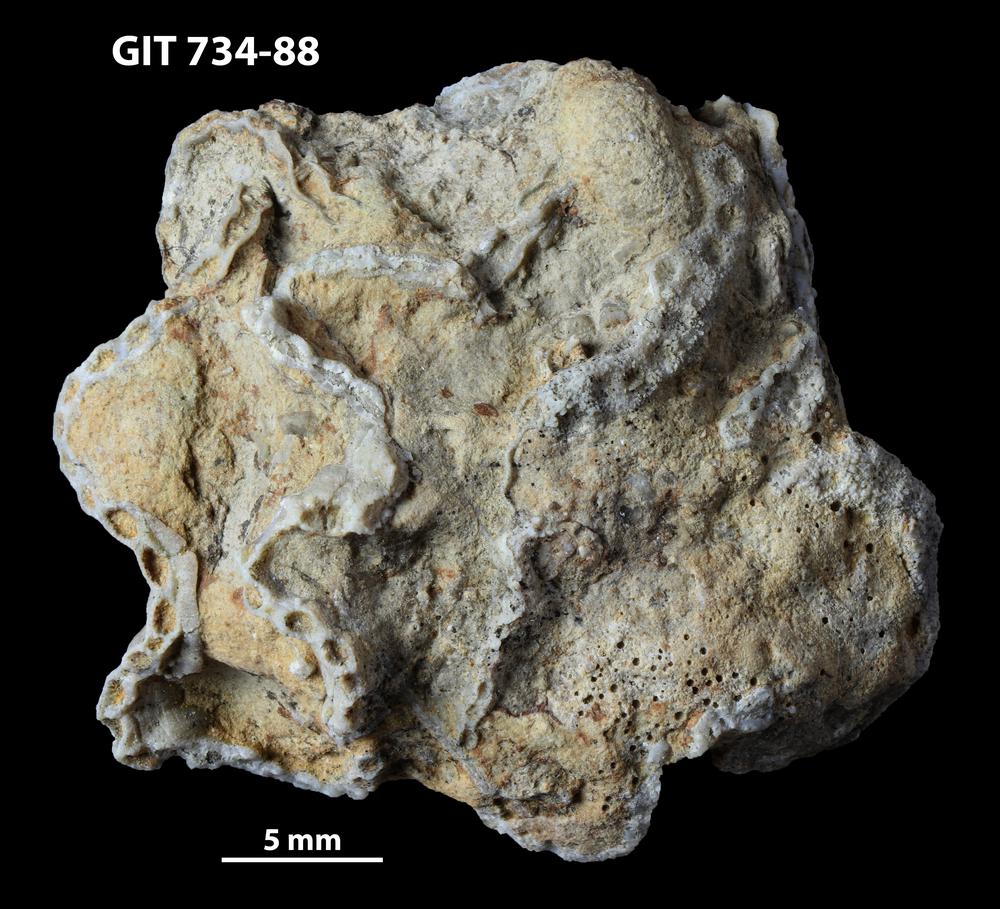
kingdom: Animalia
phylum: Cnidaria
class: Anthozoa
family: Cateniporidae
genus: Catenipora
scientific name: Catenipora
